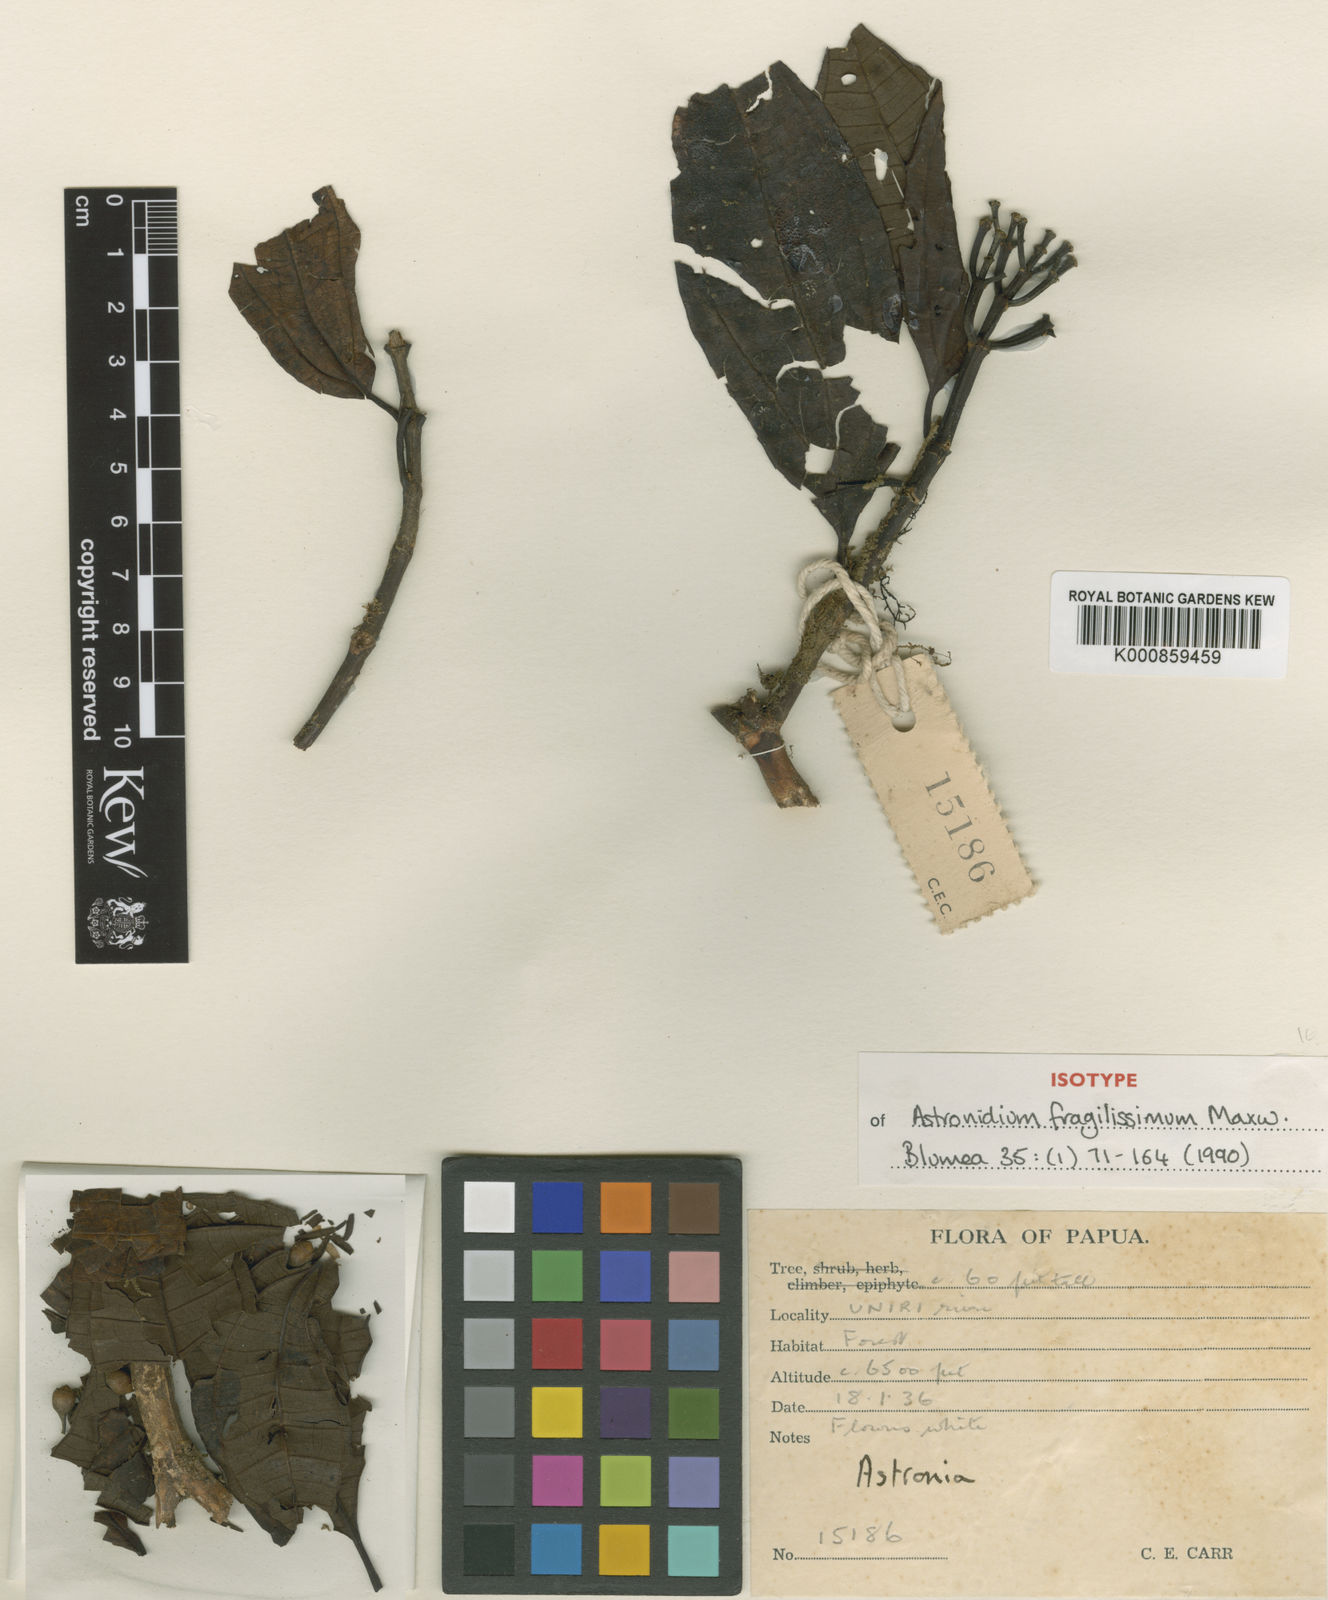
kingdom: Plantae
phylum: Tracheophyta
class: Magnoliopsida
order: Myrtales
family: Melastomataceae
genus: Astronidium
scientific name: Astronidium fragilissimum
